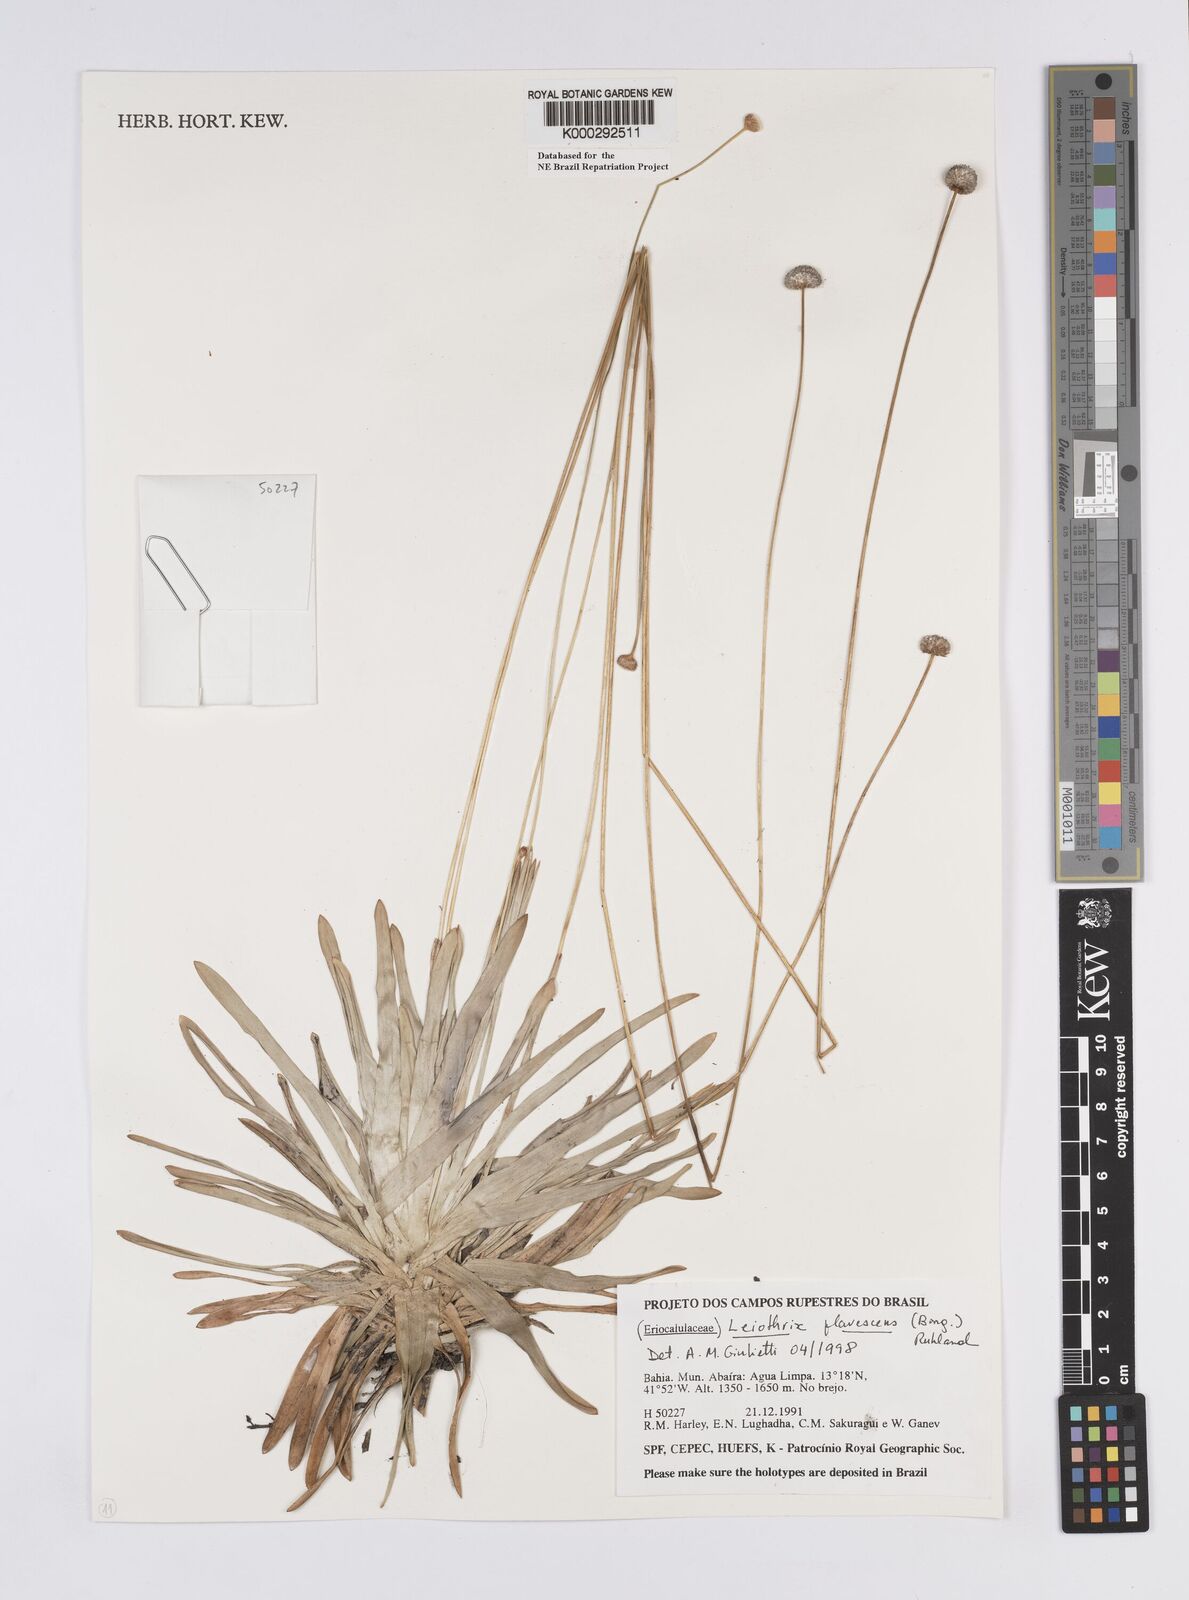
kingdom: Plantae
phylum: Tracheophyta
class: Liliopsida
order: Poales
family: Eriocaulaceae
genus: Leiothrix
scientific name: Leiothrix flavescens
